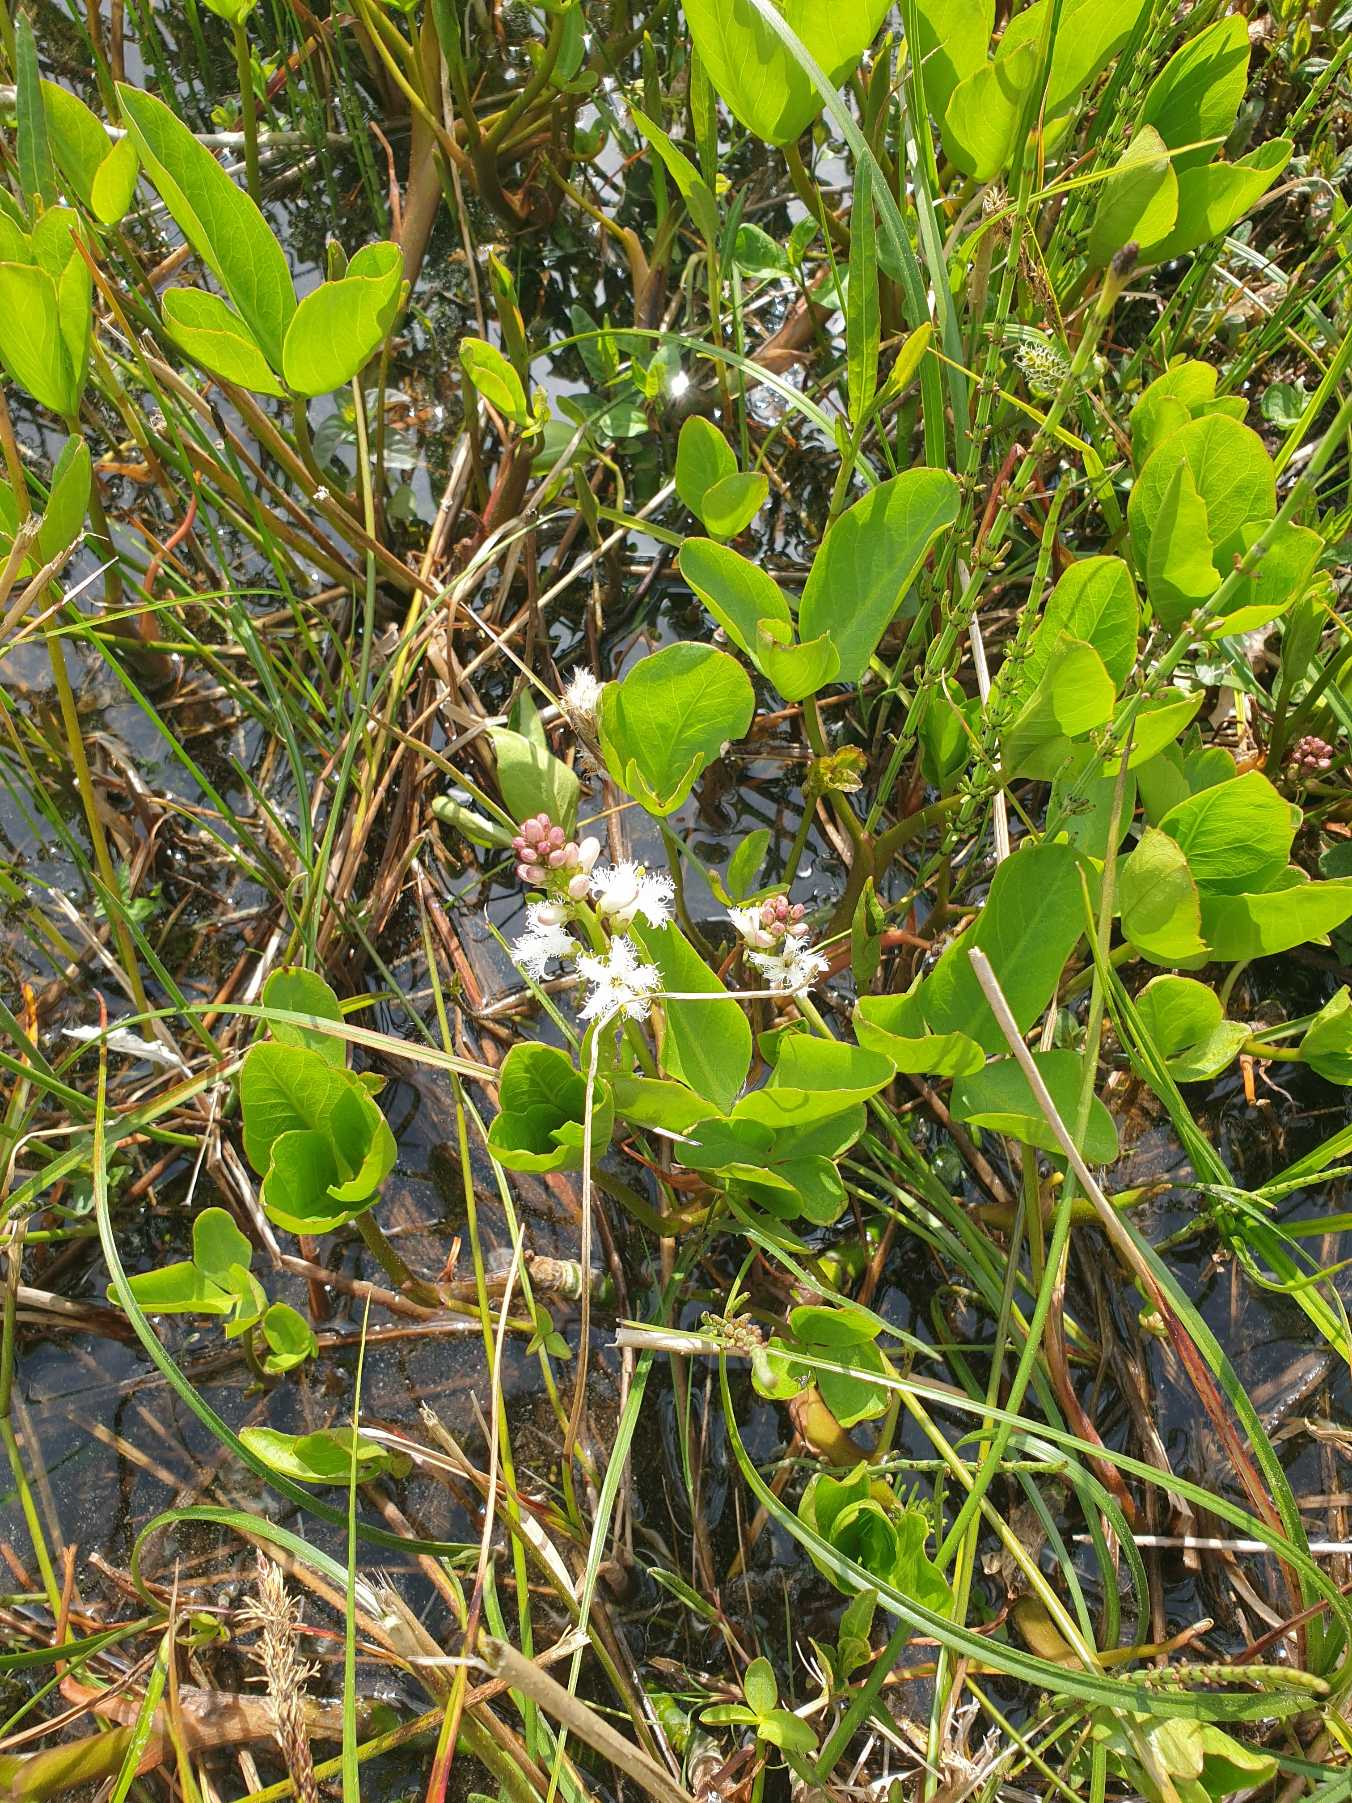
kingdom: Plantae
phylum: Tracheophyta
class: Magnoliopsida
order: Asterales
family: Menyanthaceae
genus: Menyanthes
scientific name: Menyanthes trifoliata
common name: Bukkeblad
